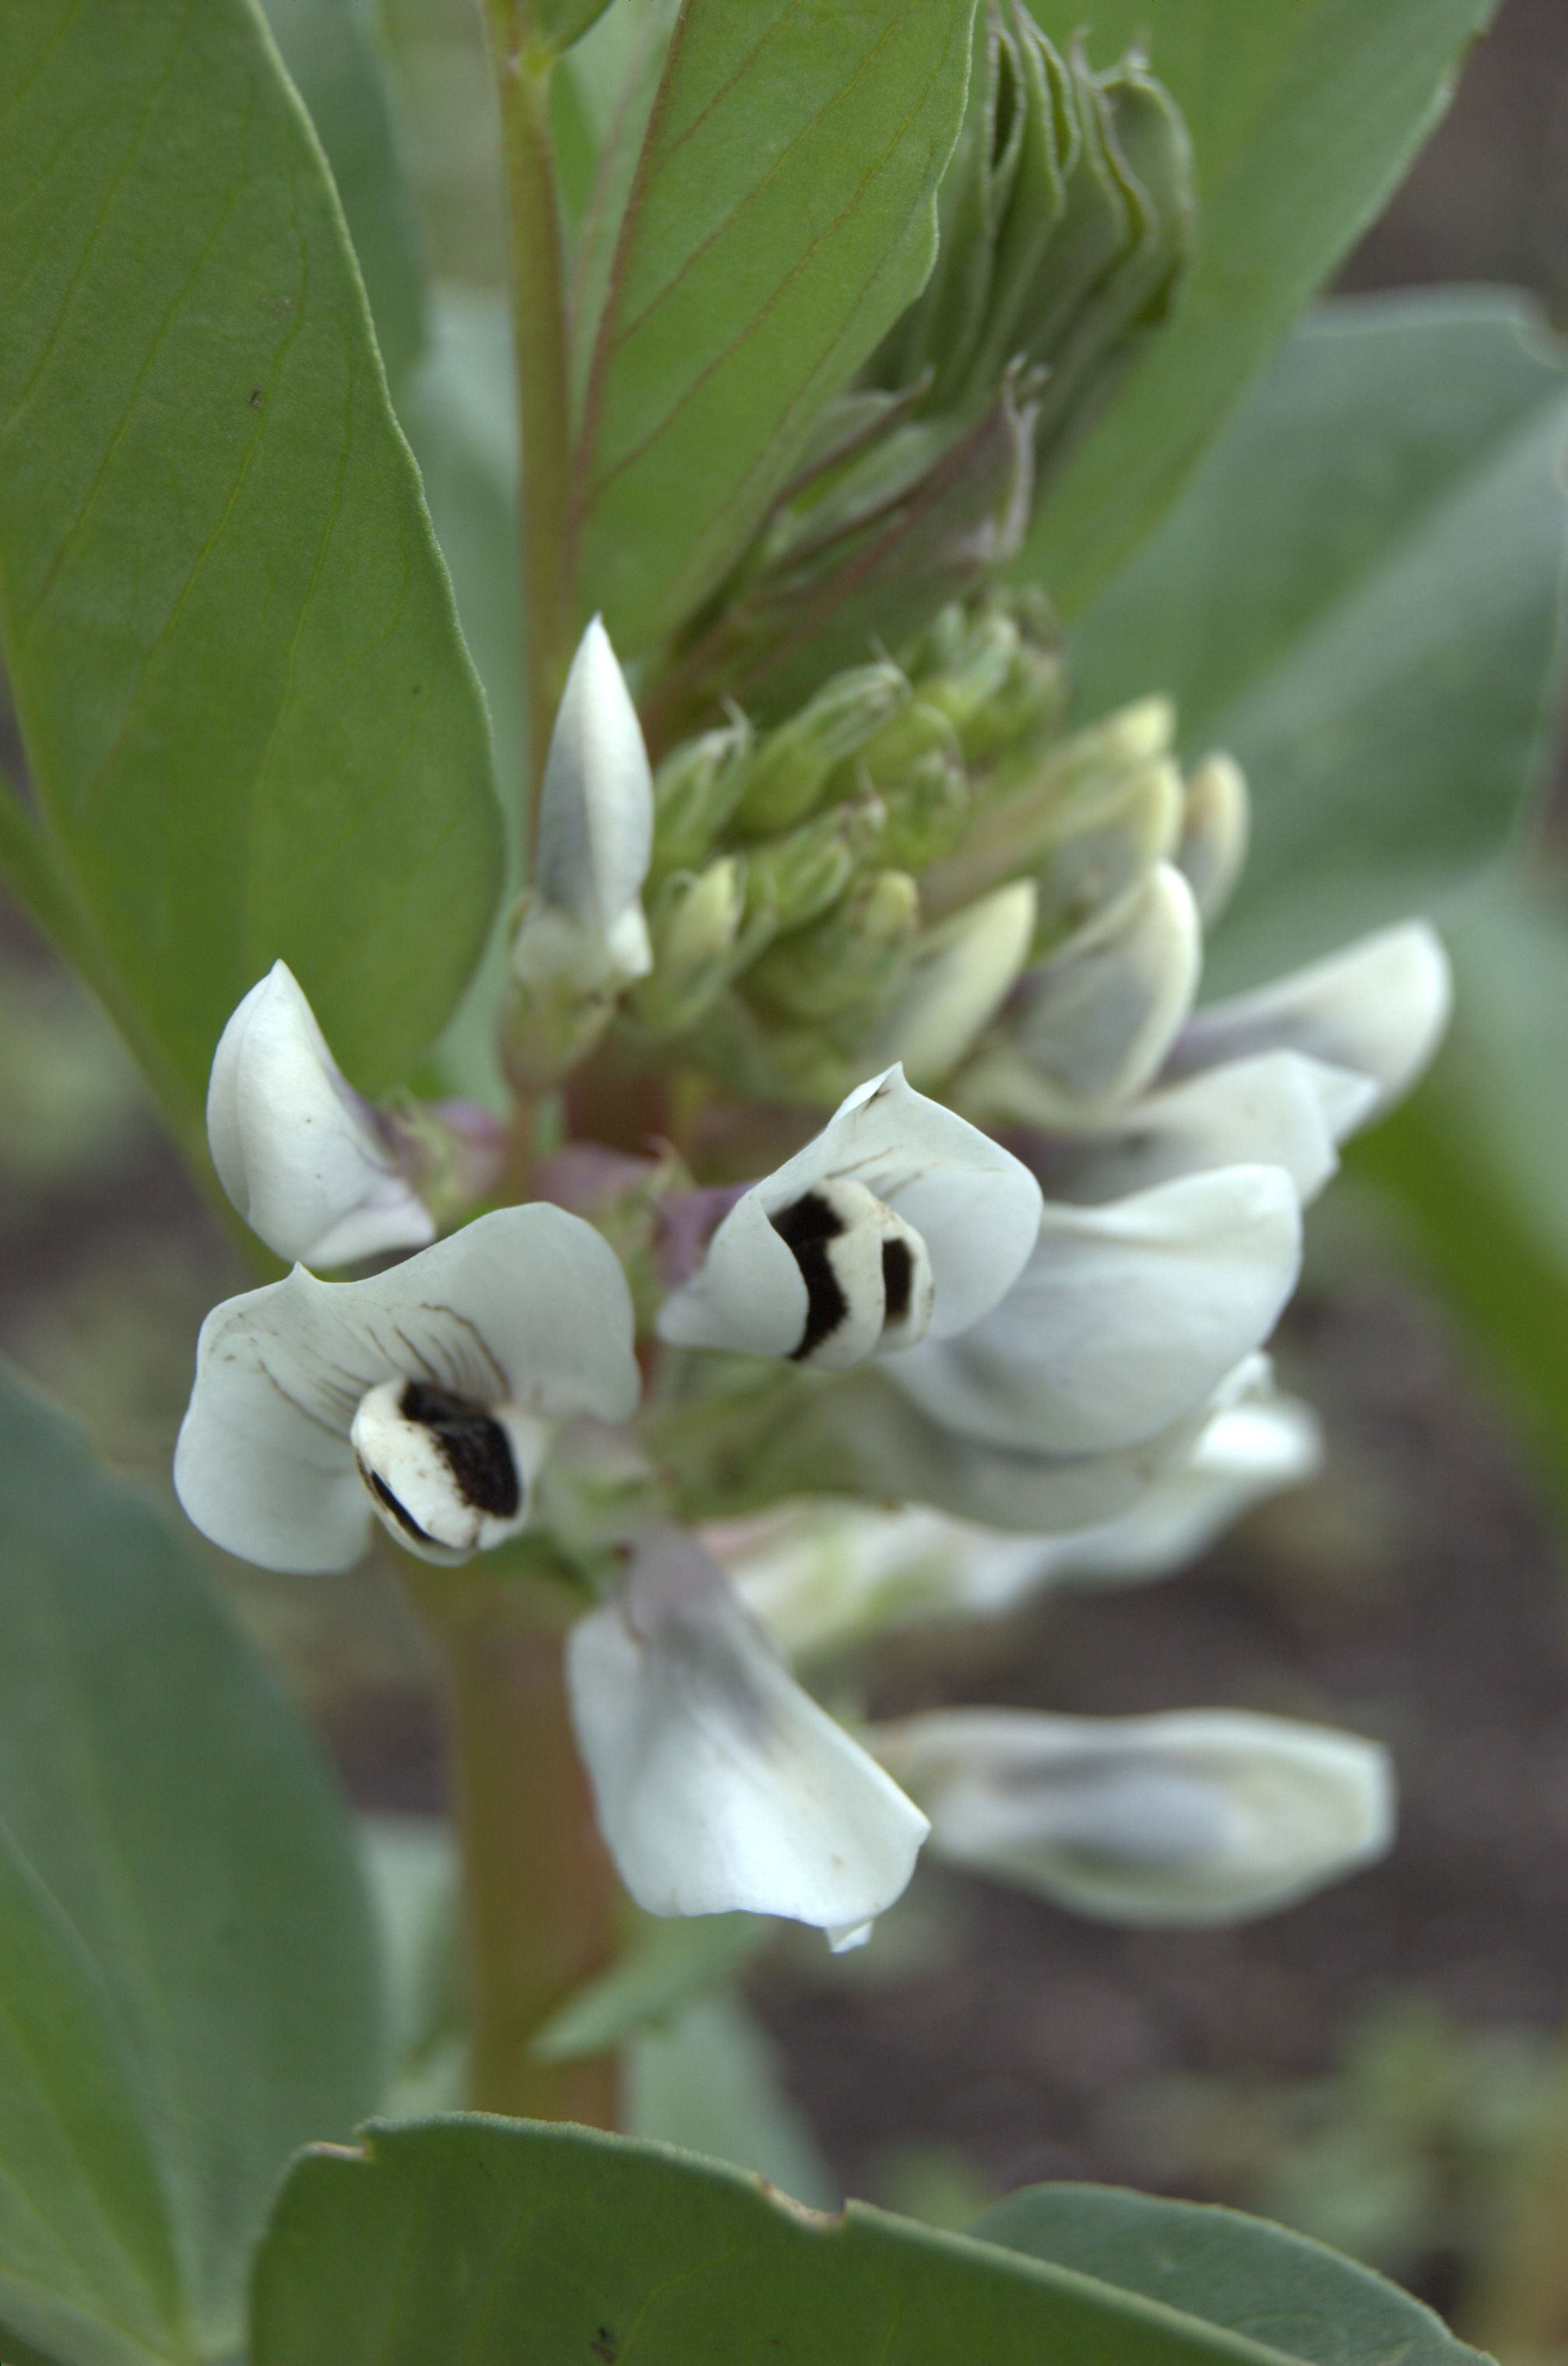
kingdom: Plantae
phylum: Tracheophyta
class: Magnoliopsida
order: Fabales
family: Fabaceae
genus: Vicia
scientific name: Vicia faba
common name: Broad bean
